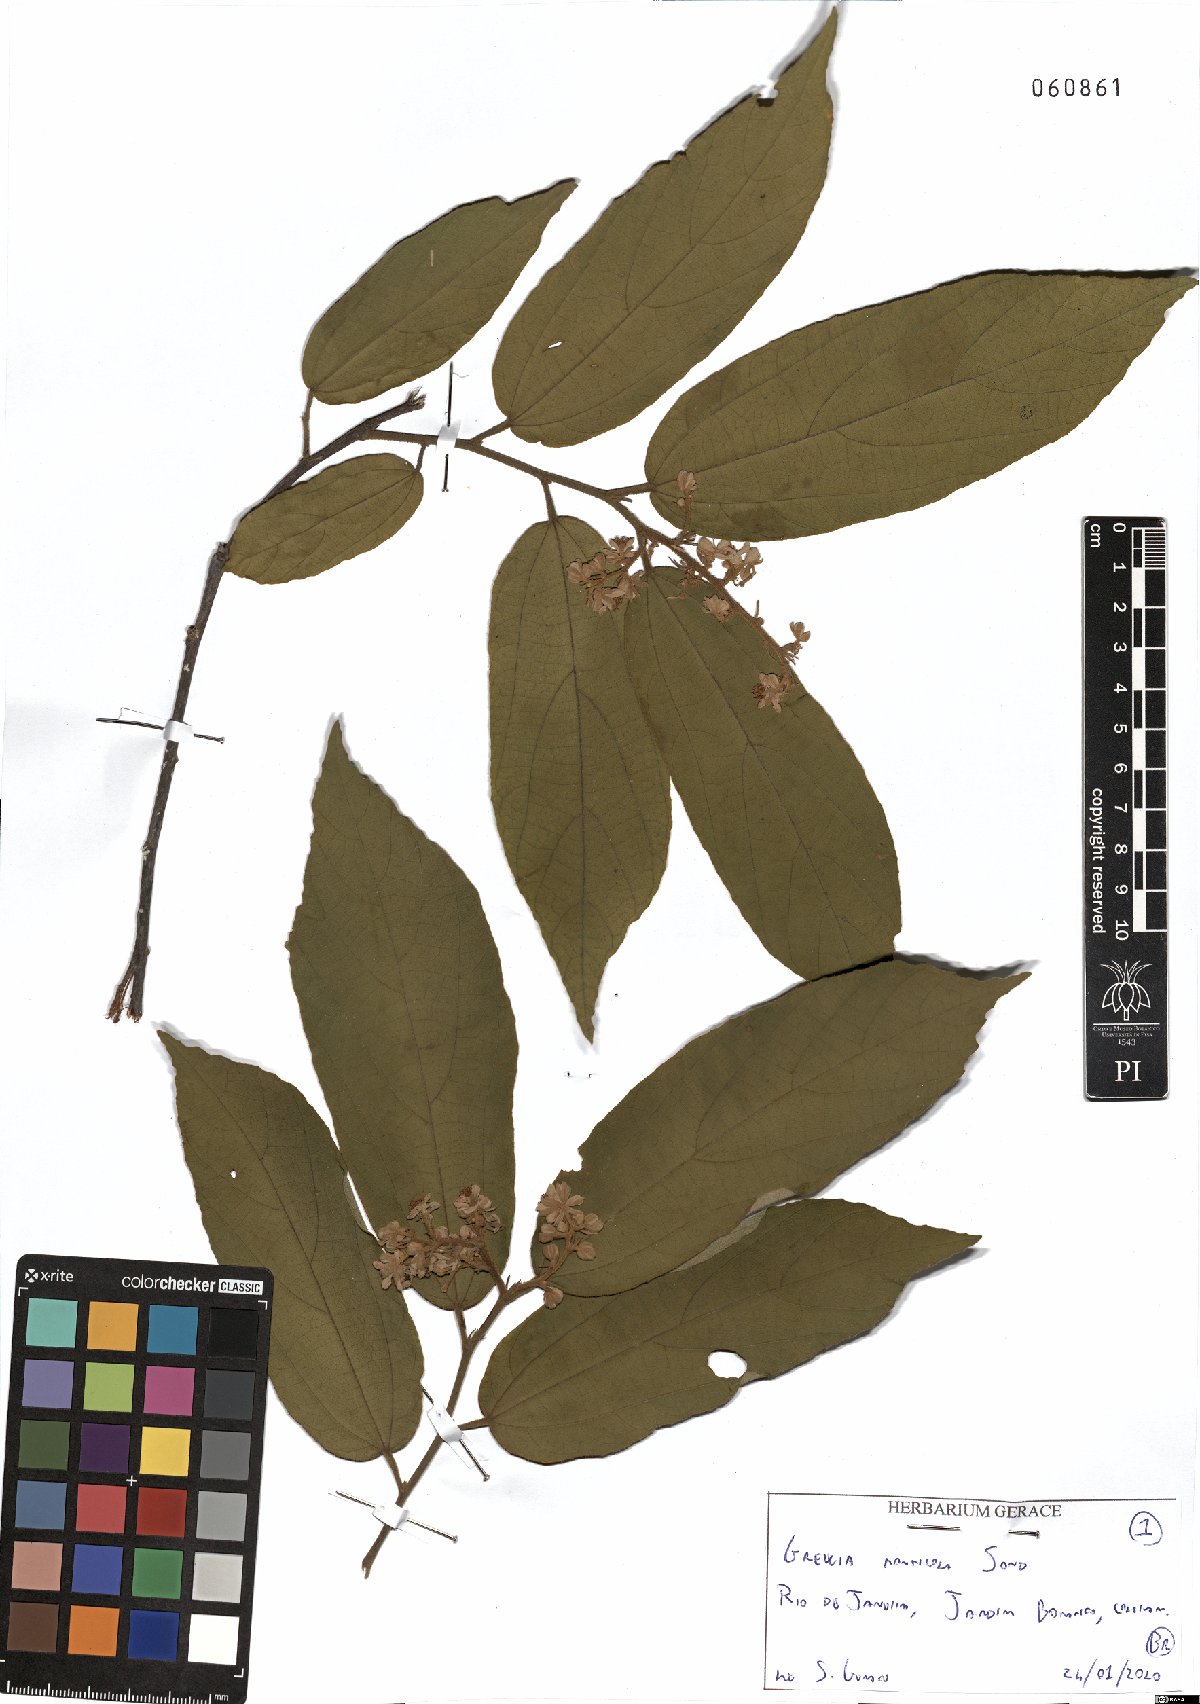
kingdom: Plantae
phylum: Tracheophyta
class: Magnoliopsida
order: Malvales
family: Malvaceae
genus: Grewia
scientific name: Grewia monticola
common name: Grey raisin
